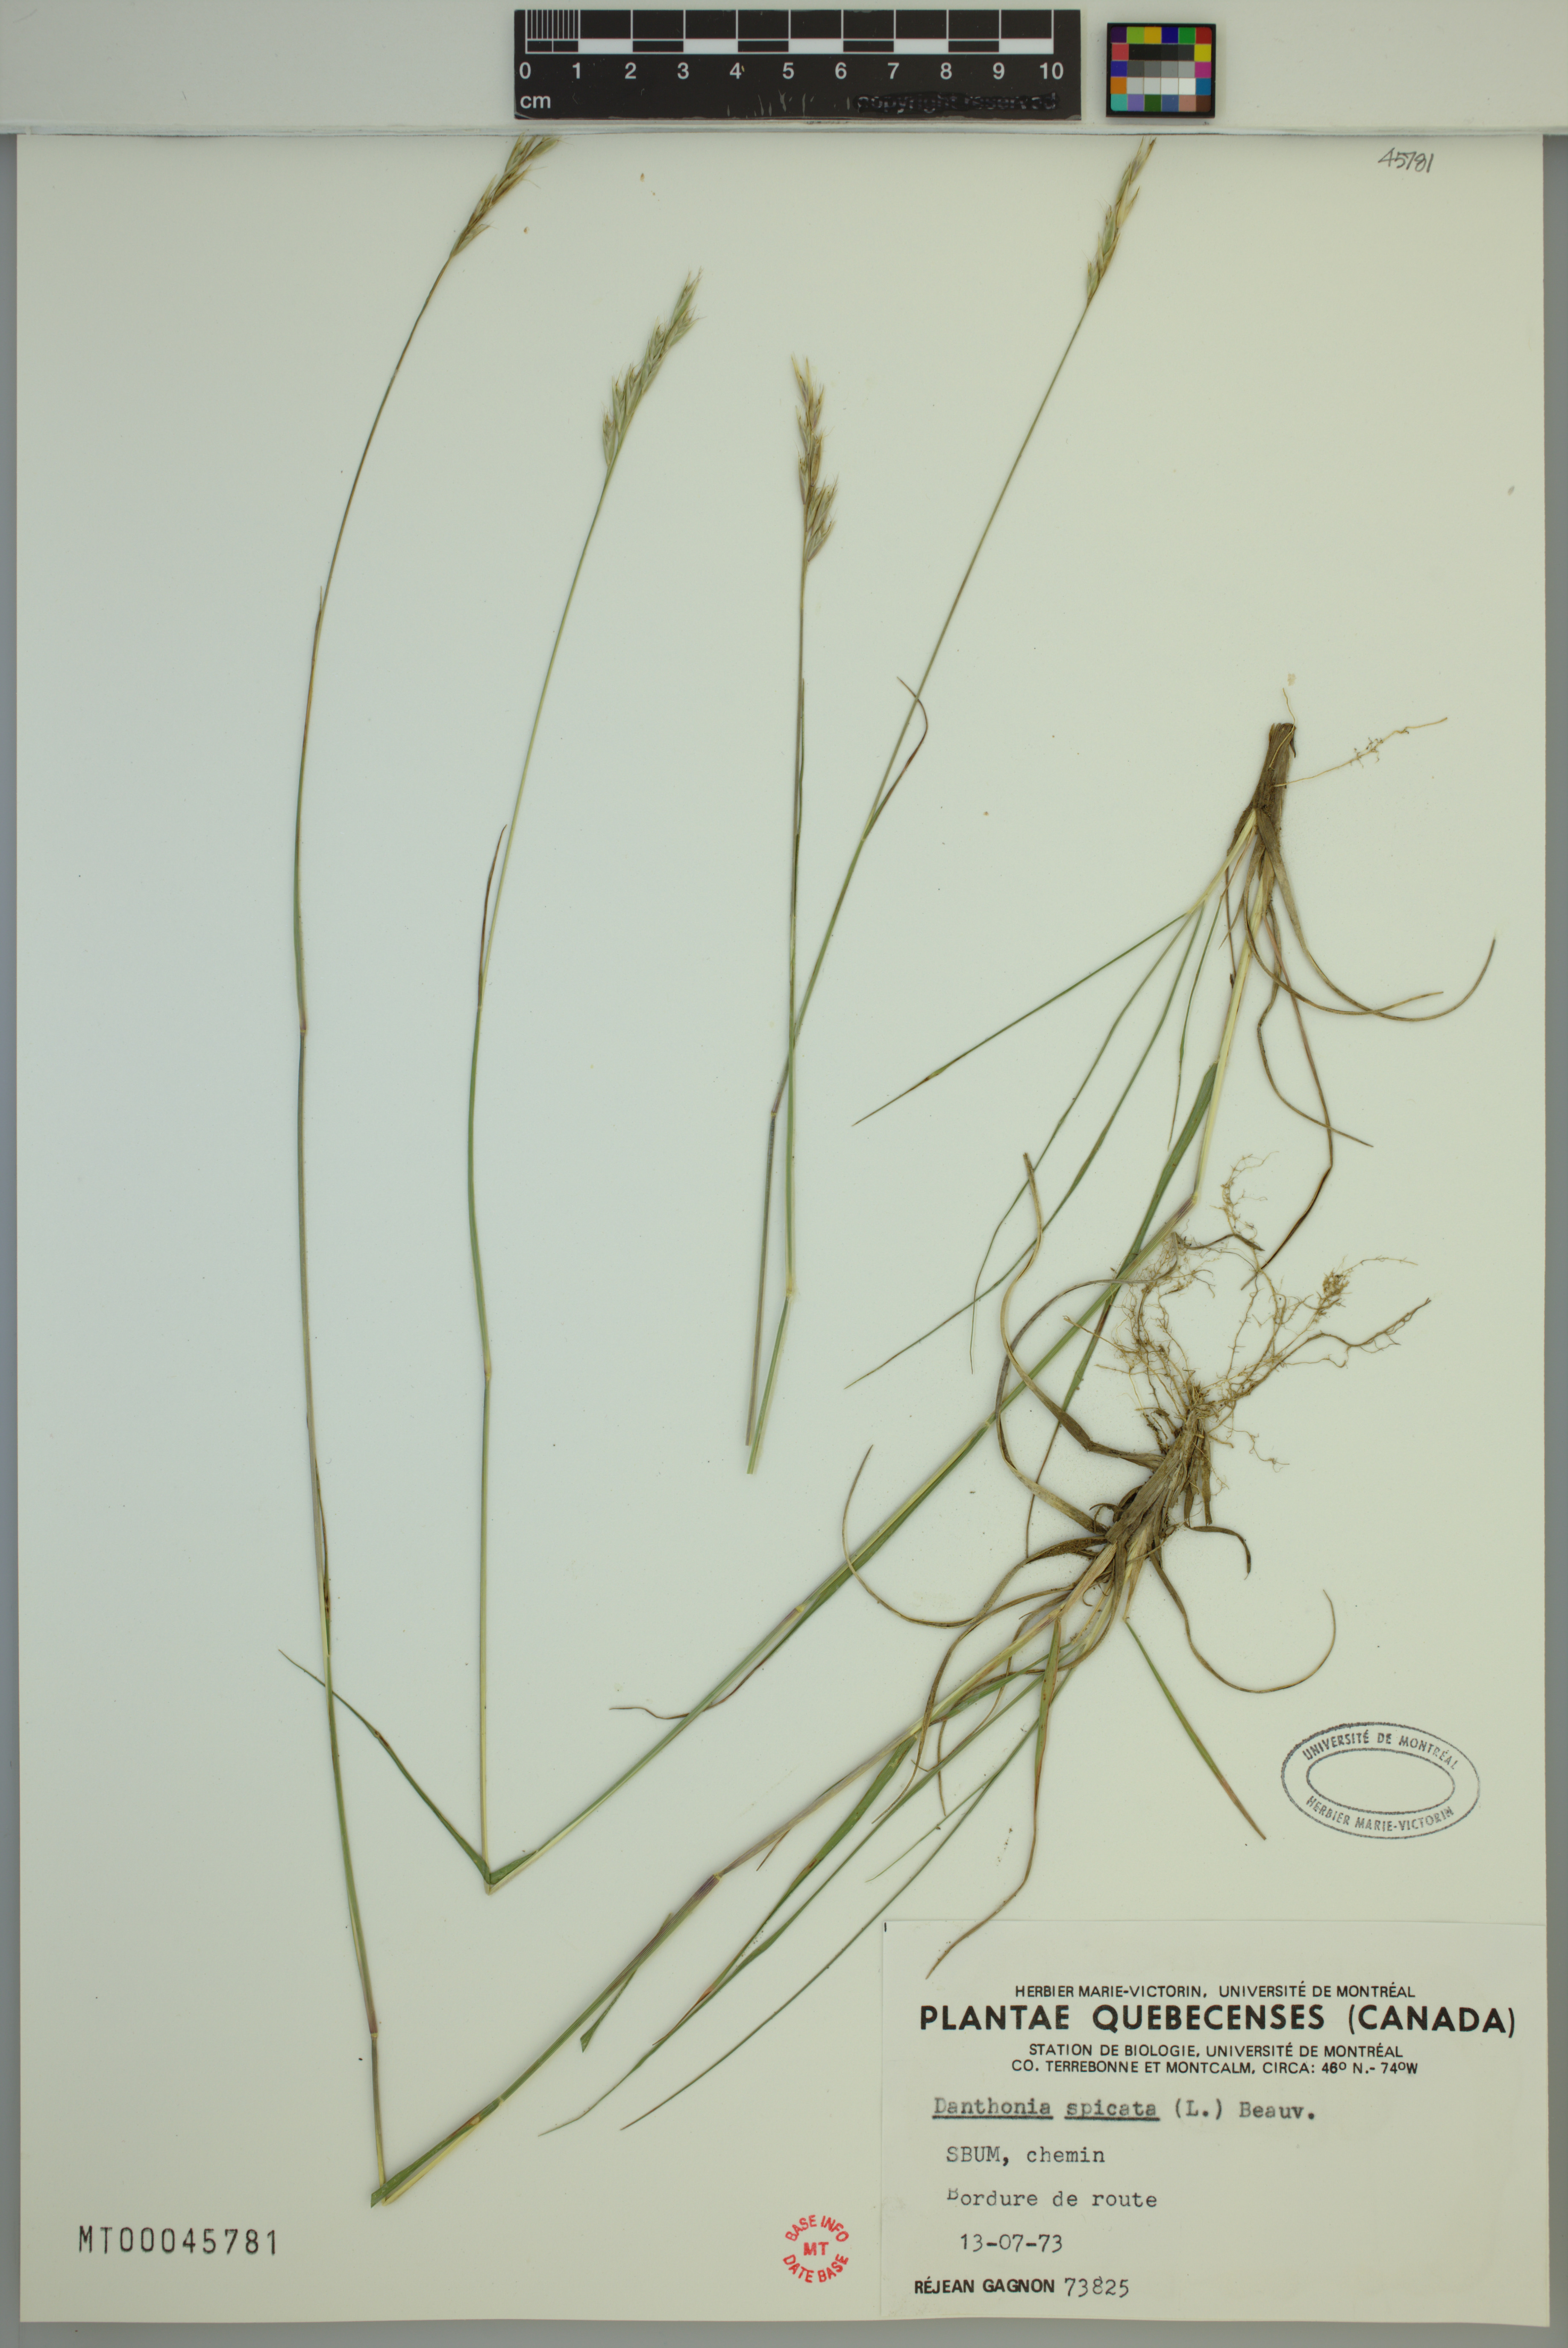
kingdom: Plantae
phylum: Tracheophyta
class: Liliopsida
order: Poales
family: Poaceae
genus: Danthonia
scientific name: Danthonia spicata
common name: Common wild oatgrass
